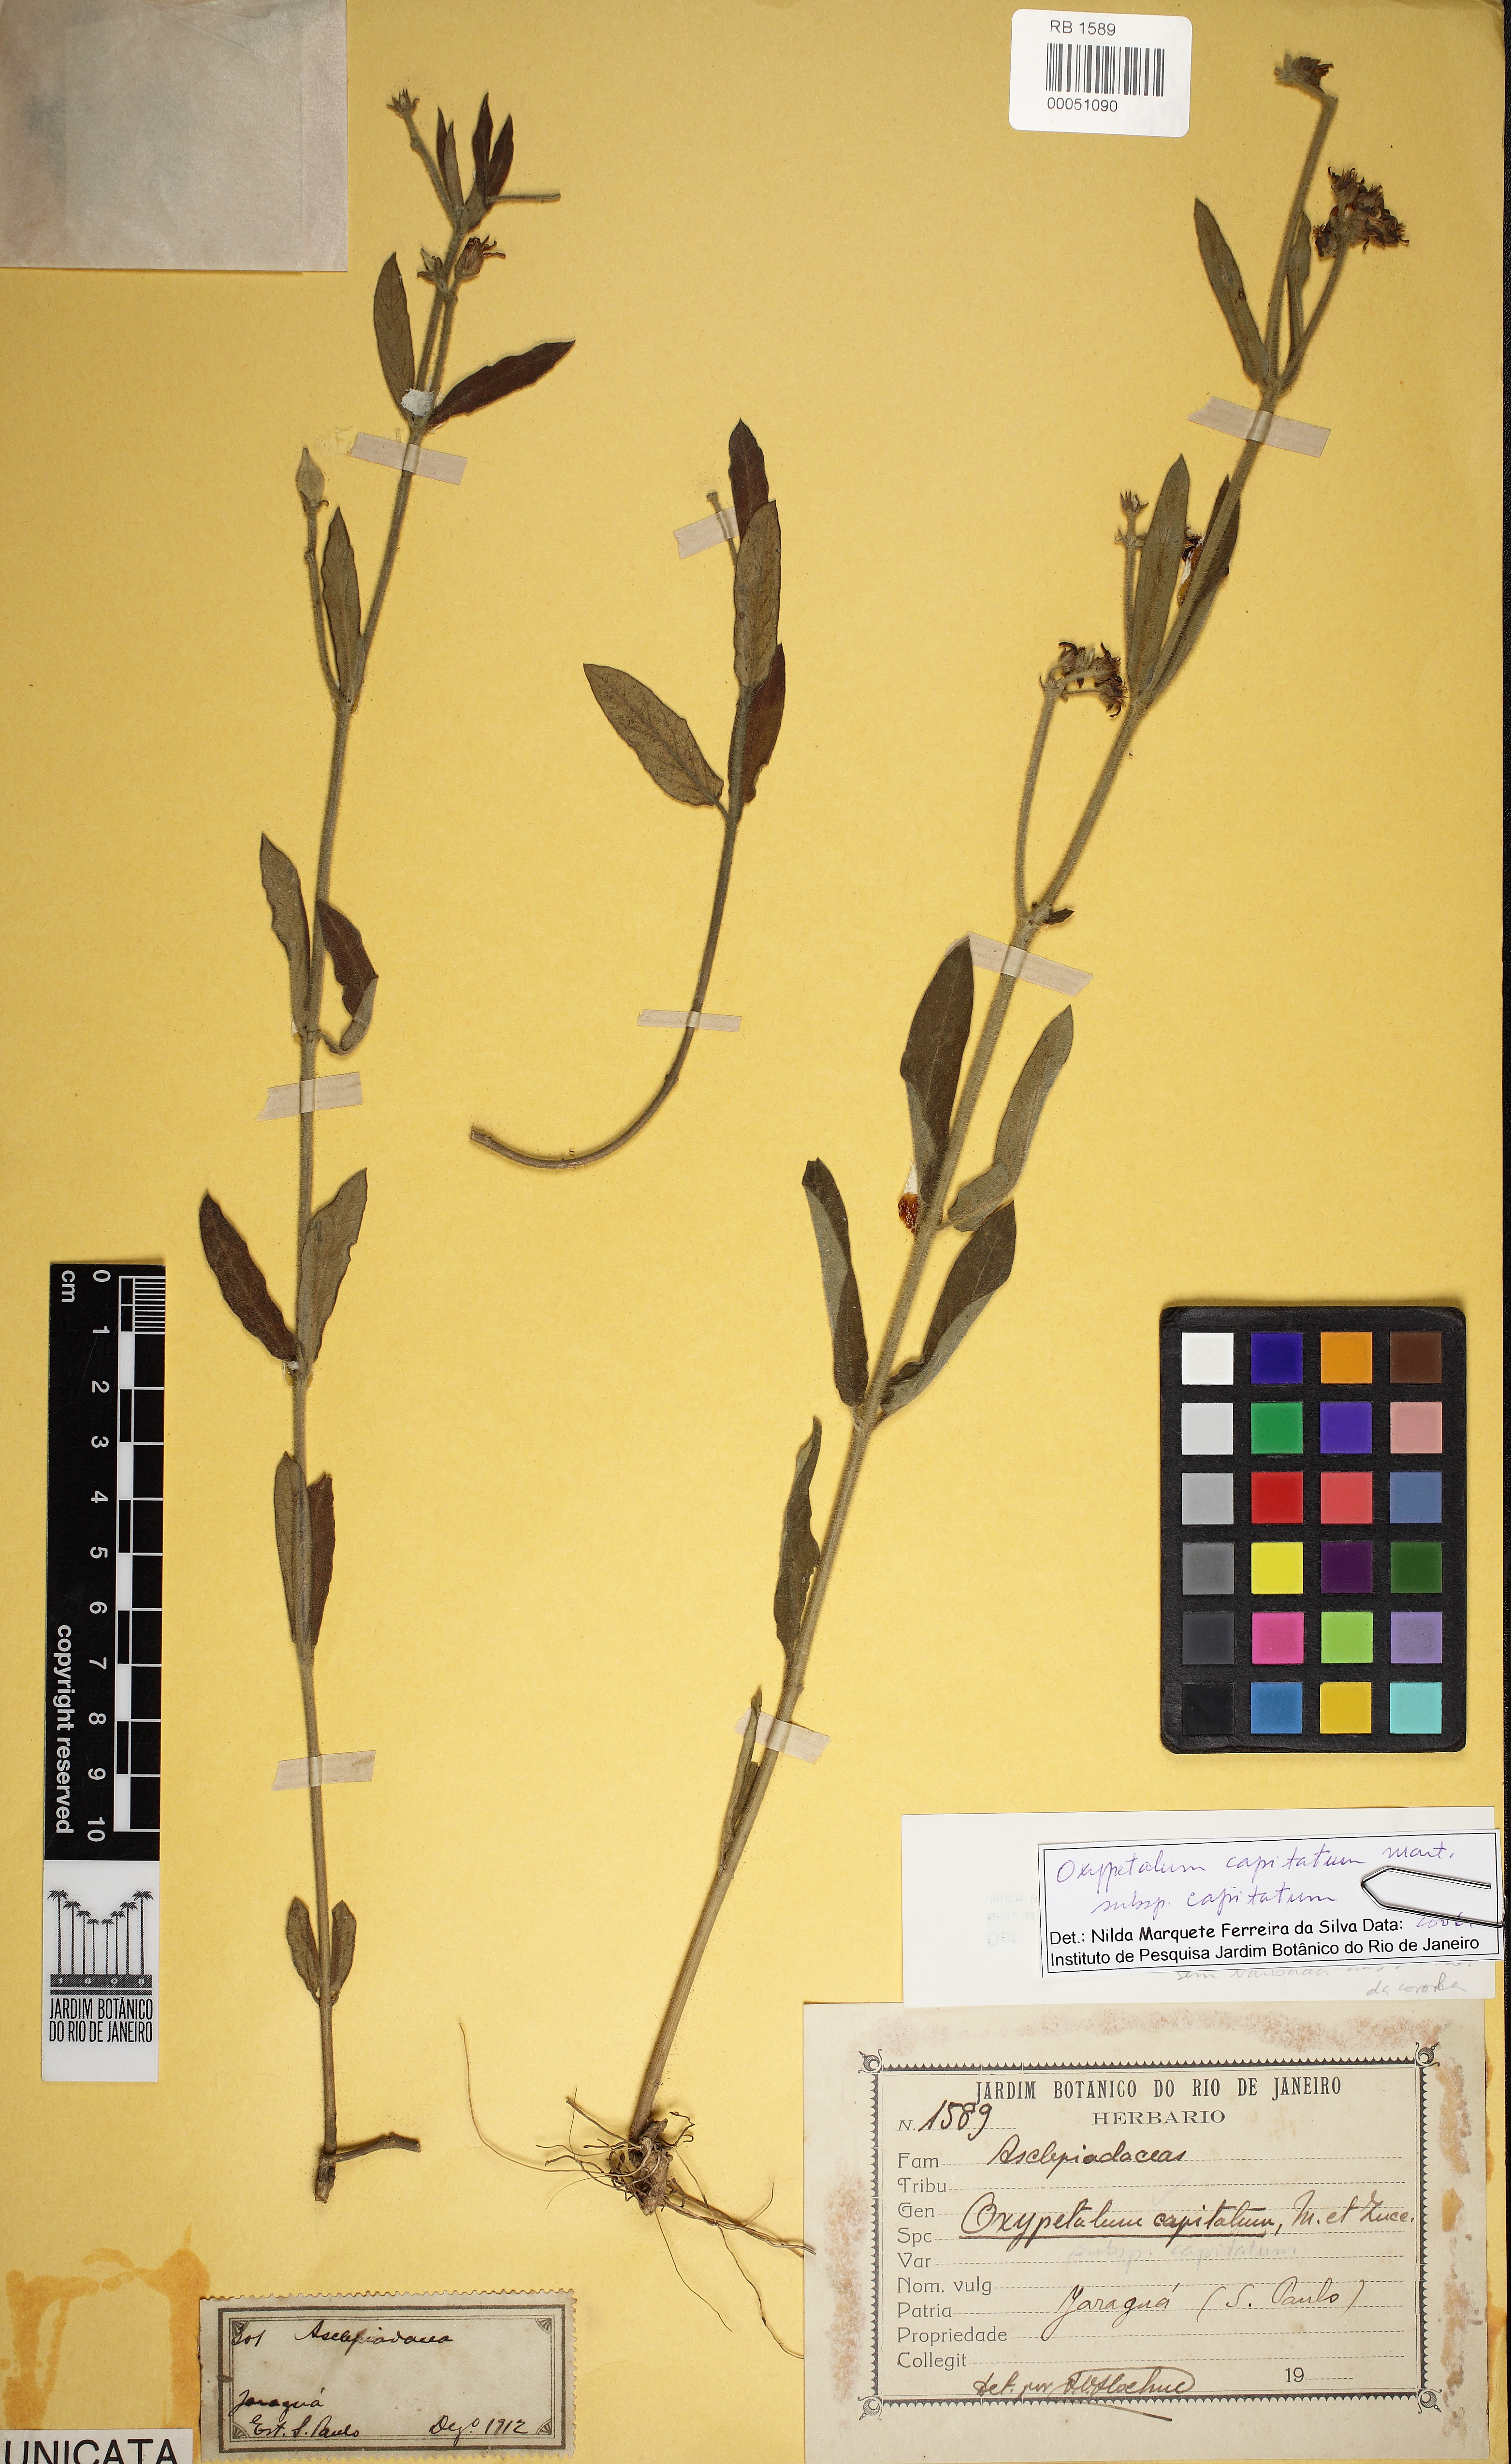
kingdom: Plantae
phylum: Tracheophyta
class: Magnoliopsida
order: Gentianales
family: Apocynaceae
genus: Oxypetalum
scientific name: Oxypetalum capitatum
